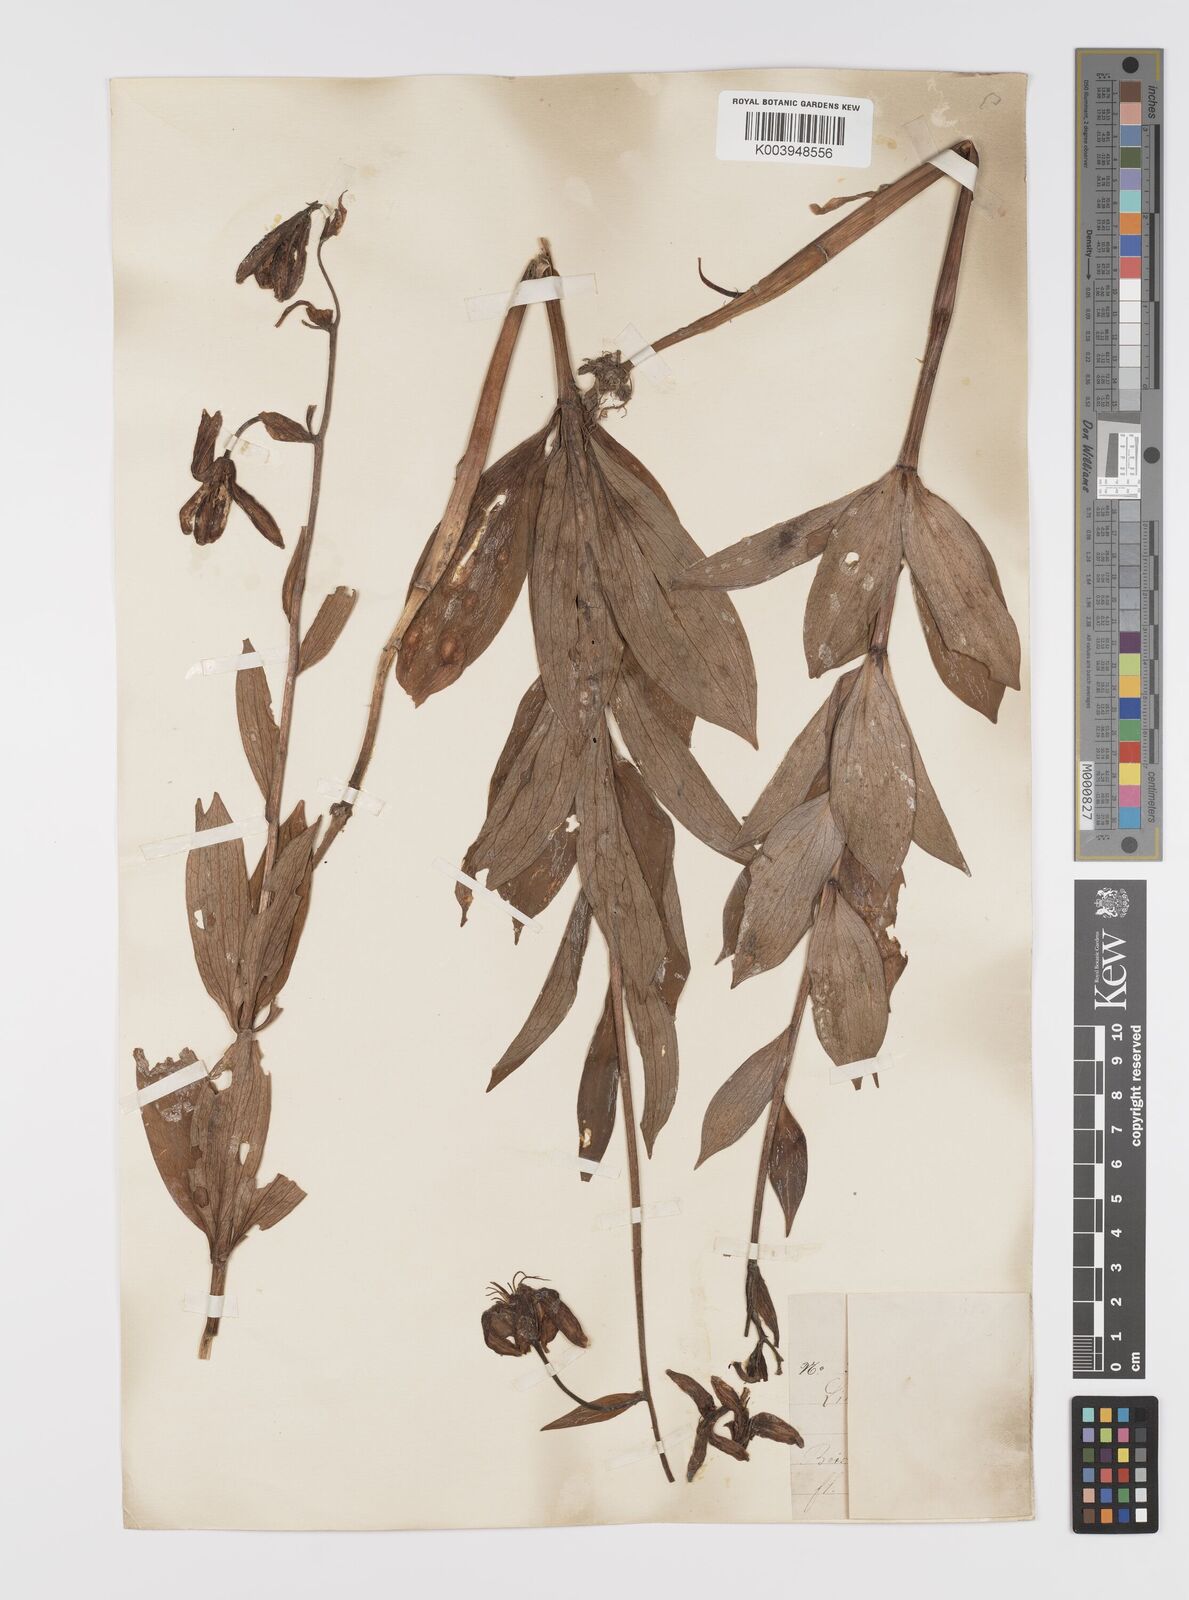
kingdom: Plantae
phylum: Tracheophyta
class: Liliopsida
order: Liliales
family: Liliaceae
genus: Lilium
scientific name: Lilium martagon
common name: Martagon lily
